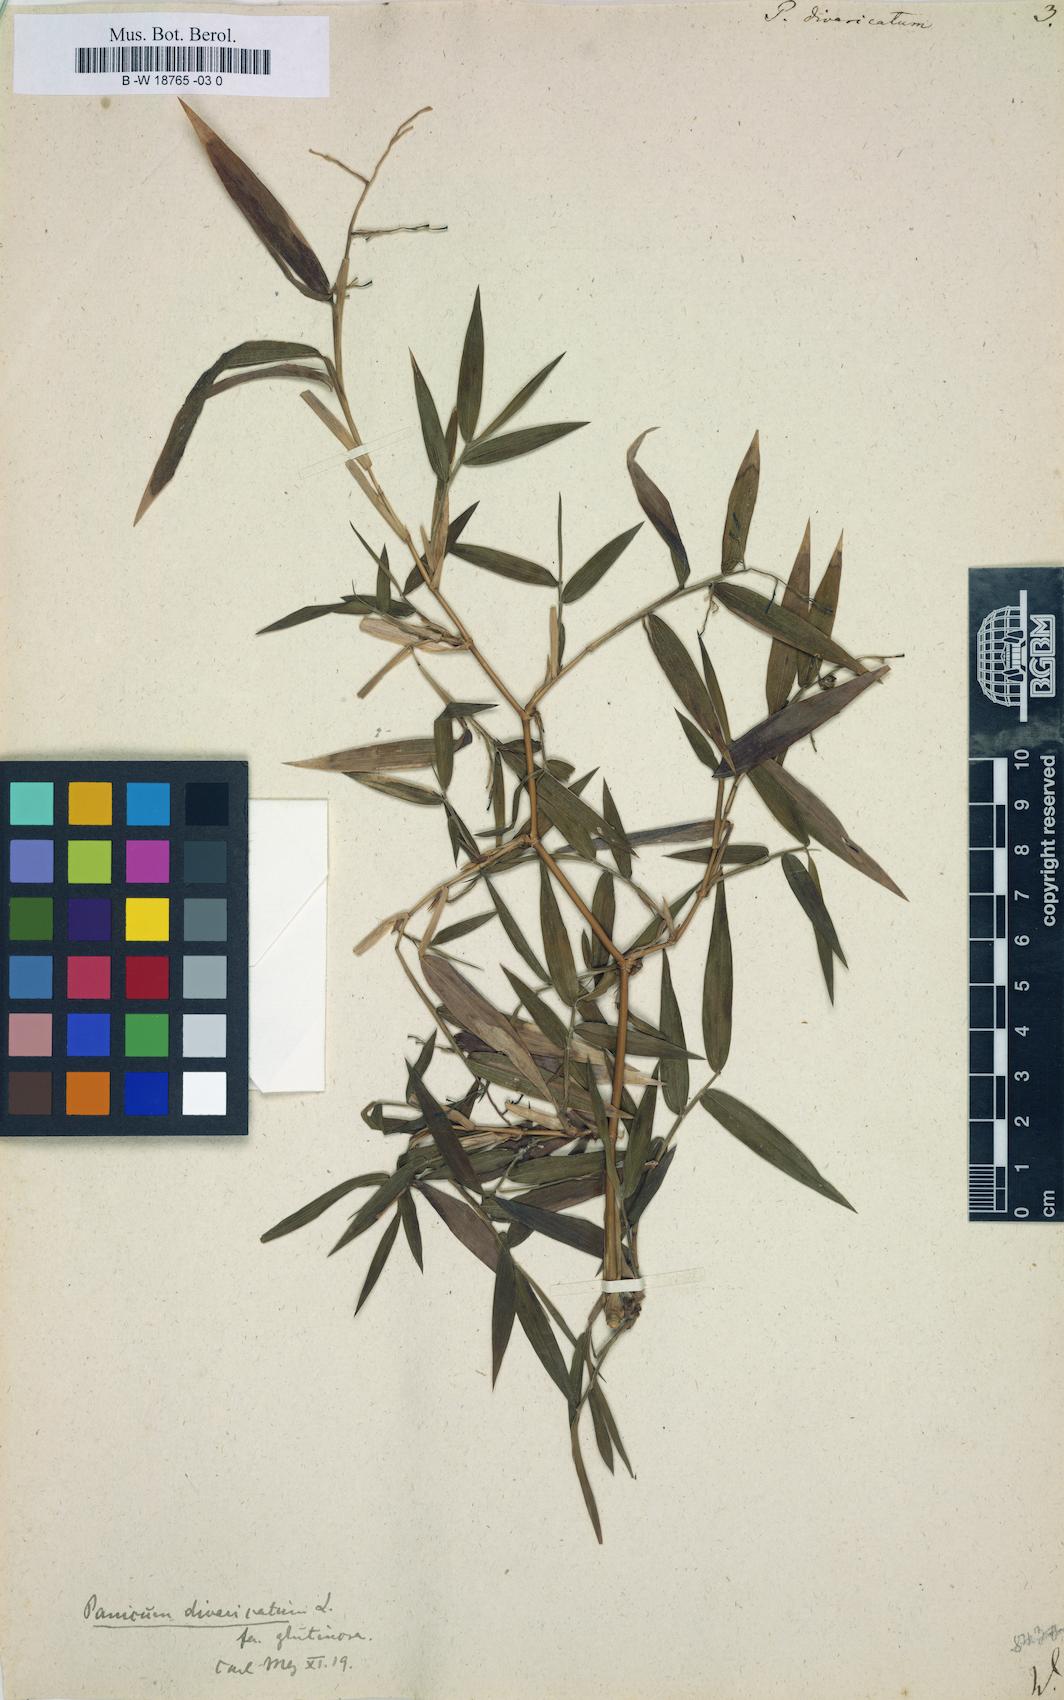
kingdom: Plantae
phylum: Tracheophyta
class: Liliopsida
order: Poales
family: Poaceae
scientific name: Poaceae
